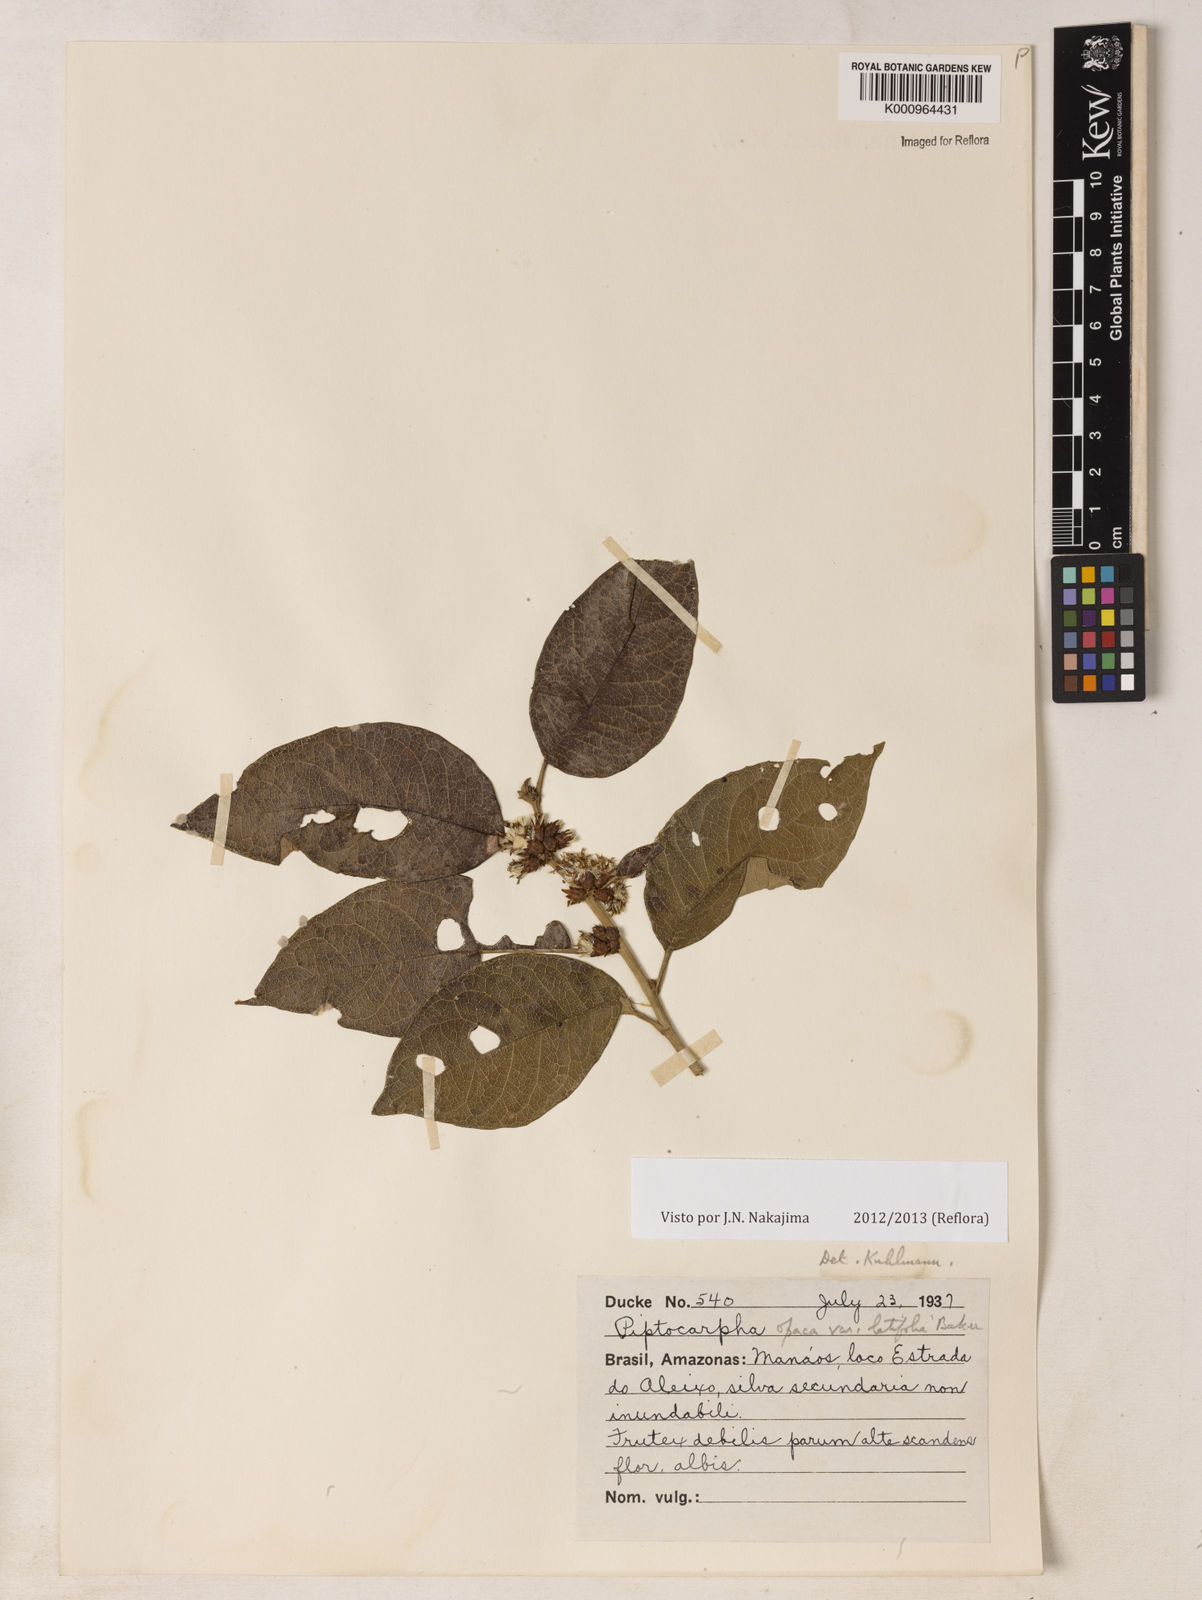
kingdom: Plantae
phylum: Tracheophyta
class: Magnoliopsida
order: Asterales
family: Asteraceae
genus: Piptocarpha
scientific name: Piptocarpha opaca
